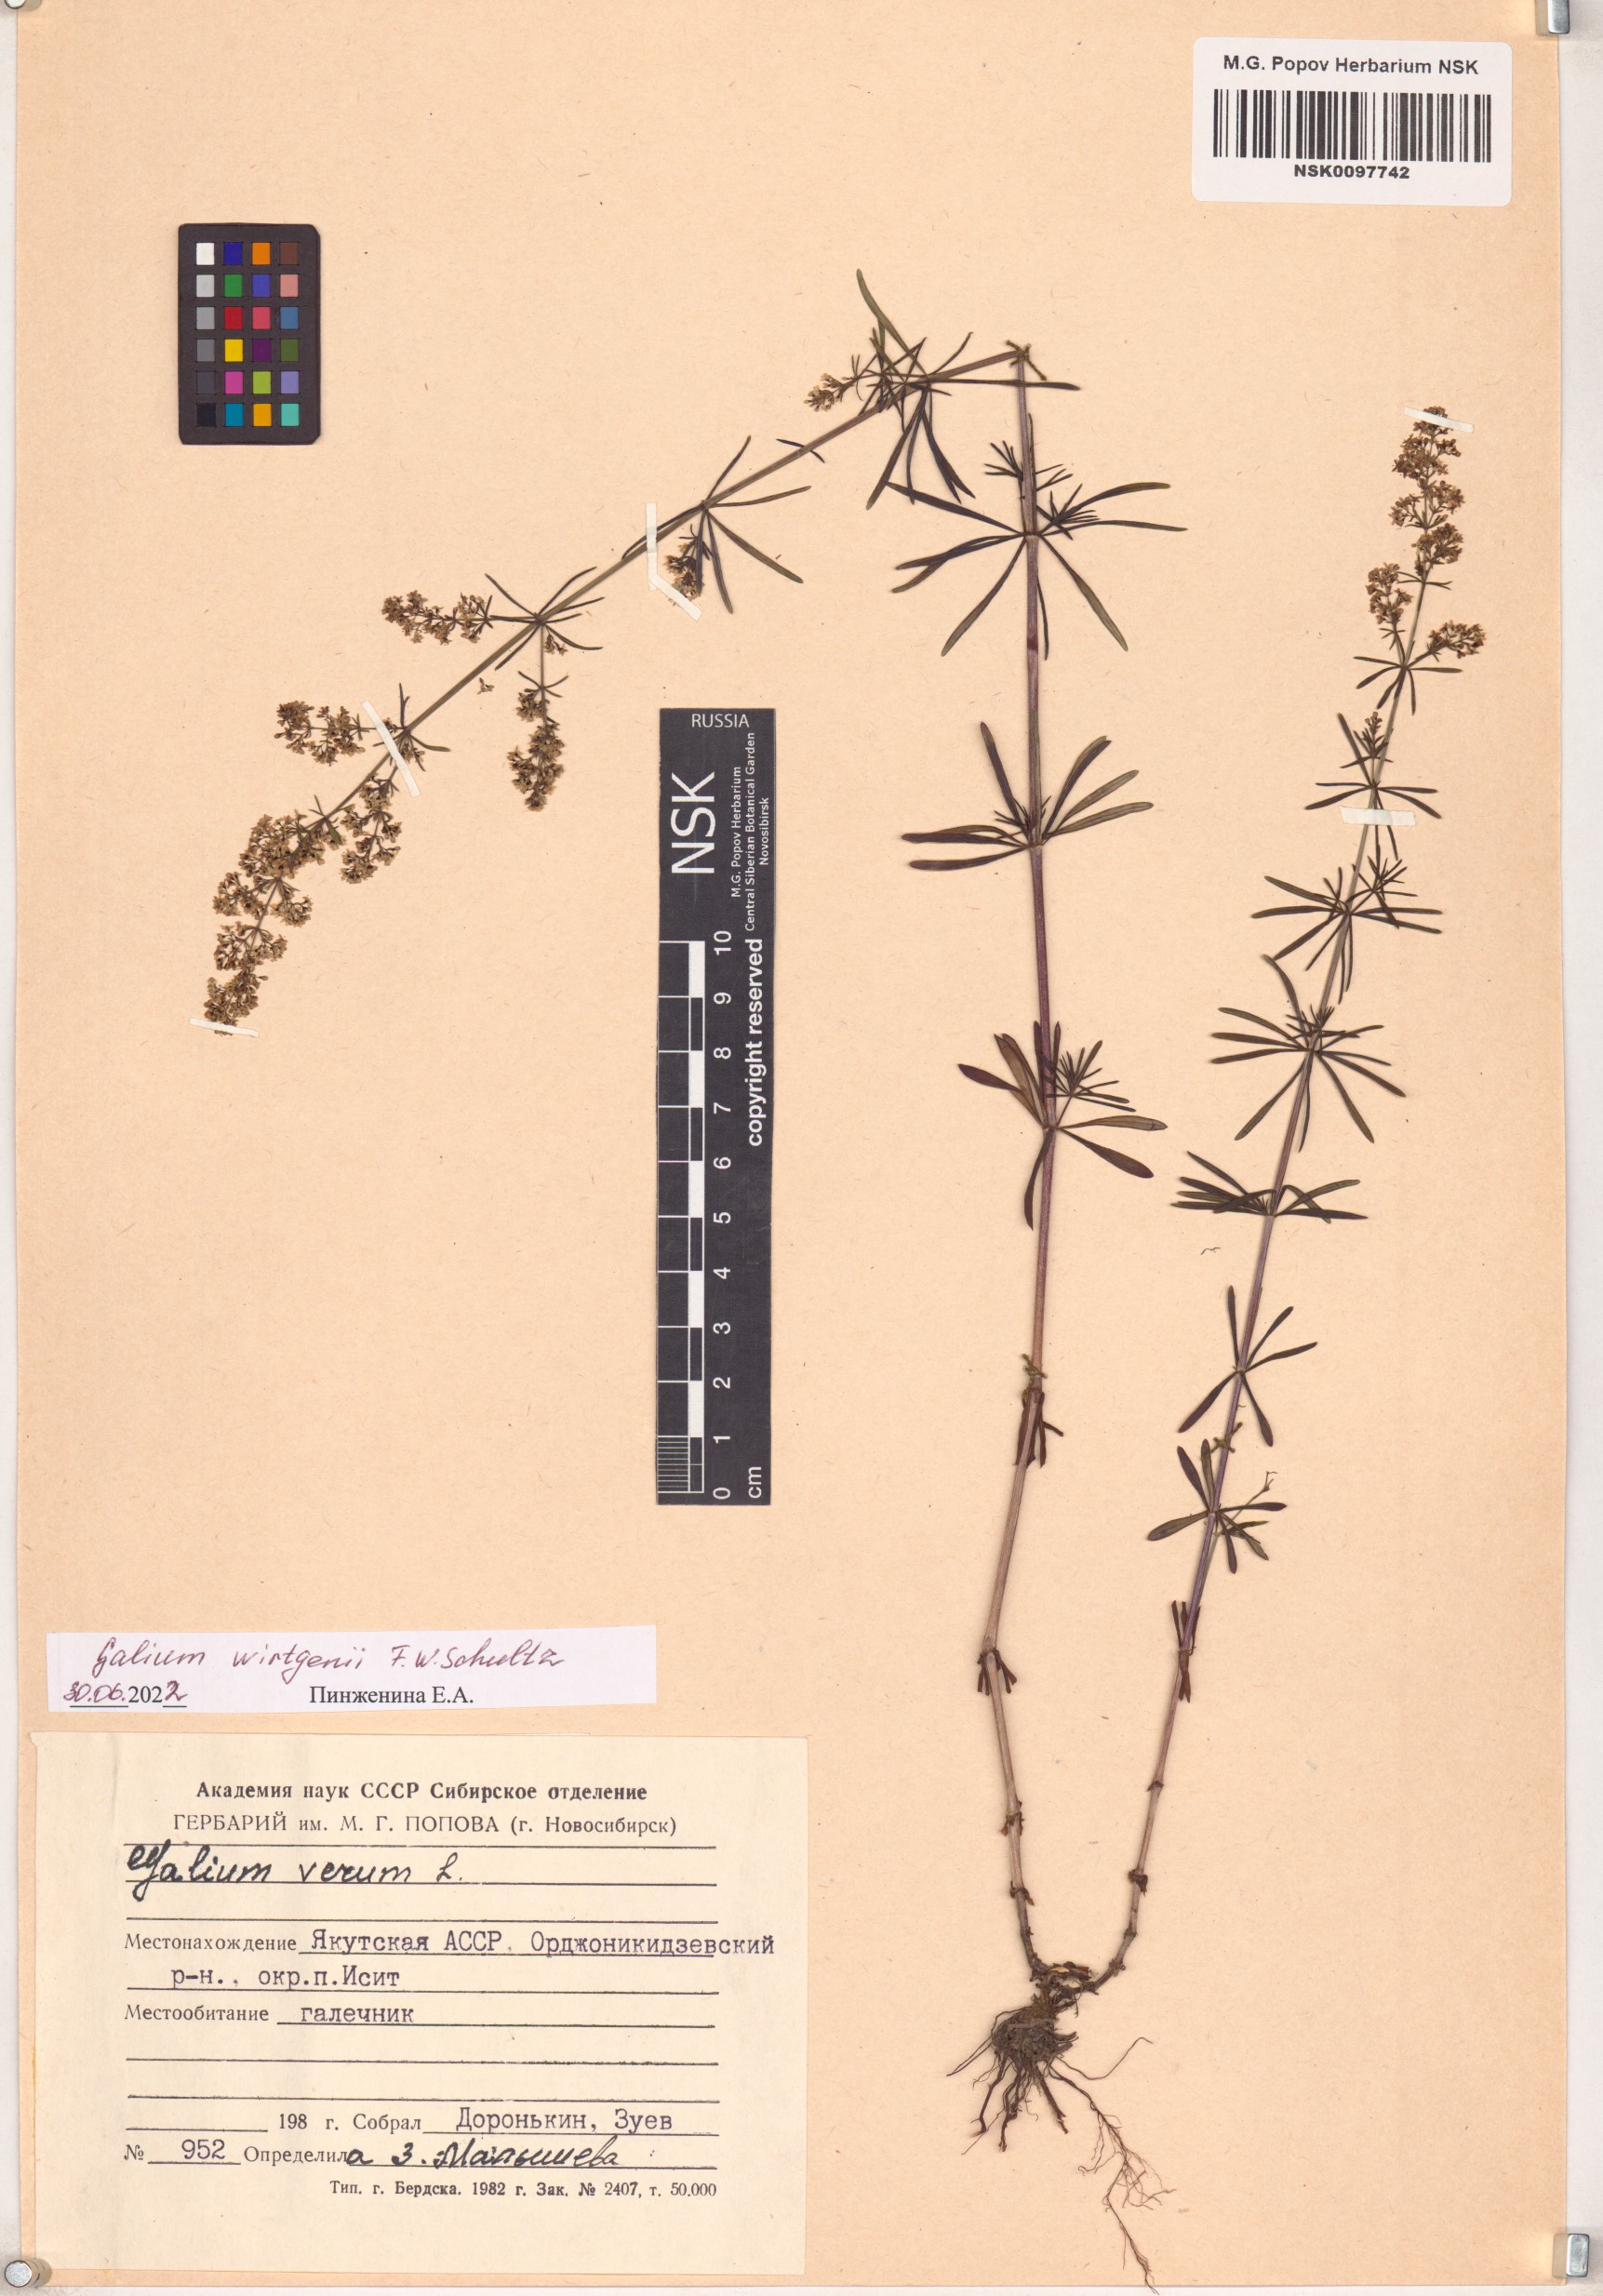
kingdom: Plantae
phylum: Tracheophyta
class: Magnoliopsida
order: Gentianales
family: Rubiaceae
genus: Galium
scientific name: Galium verum
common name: Lady's bedstraw
